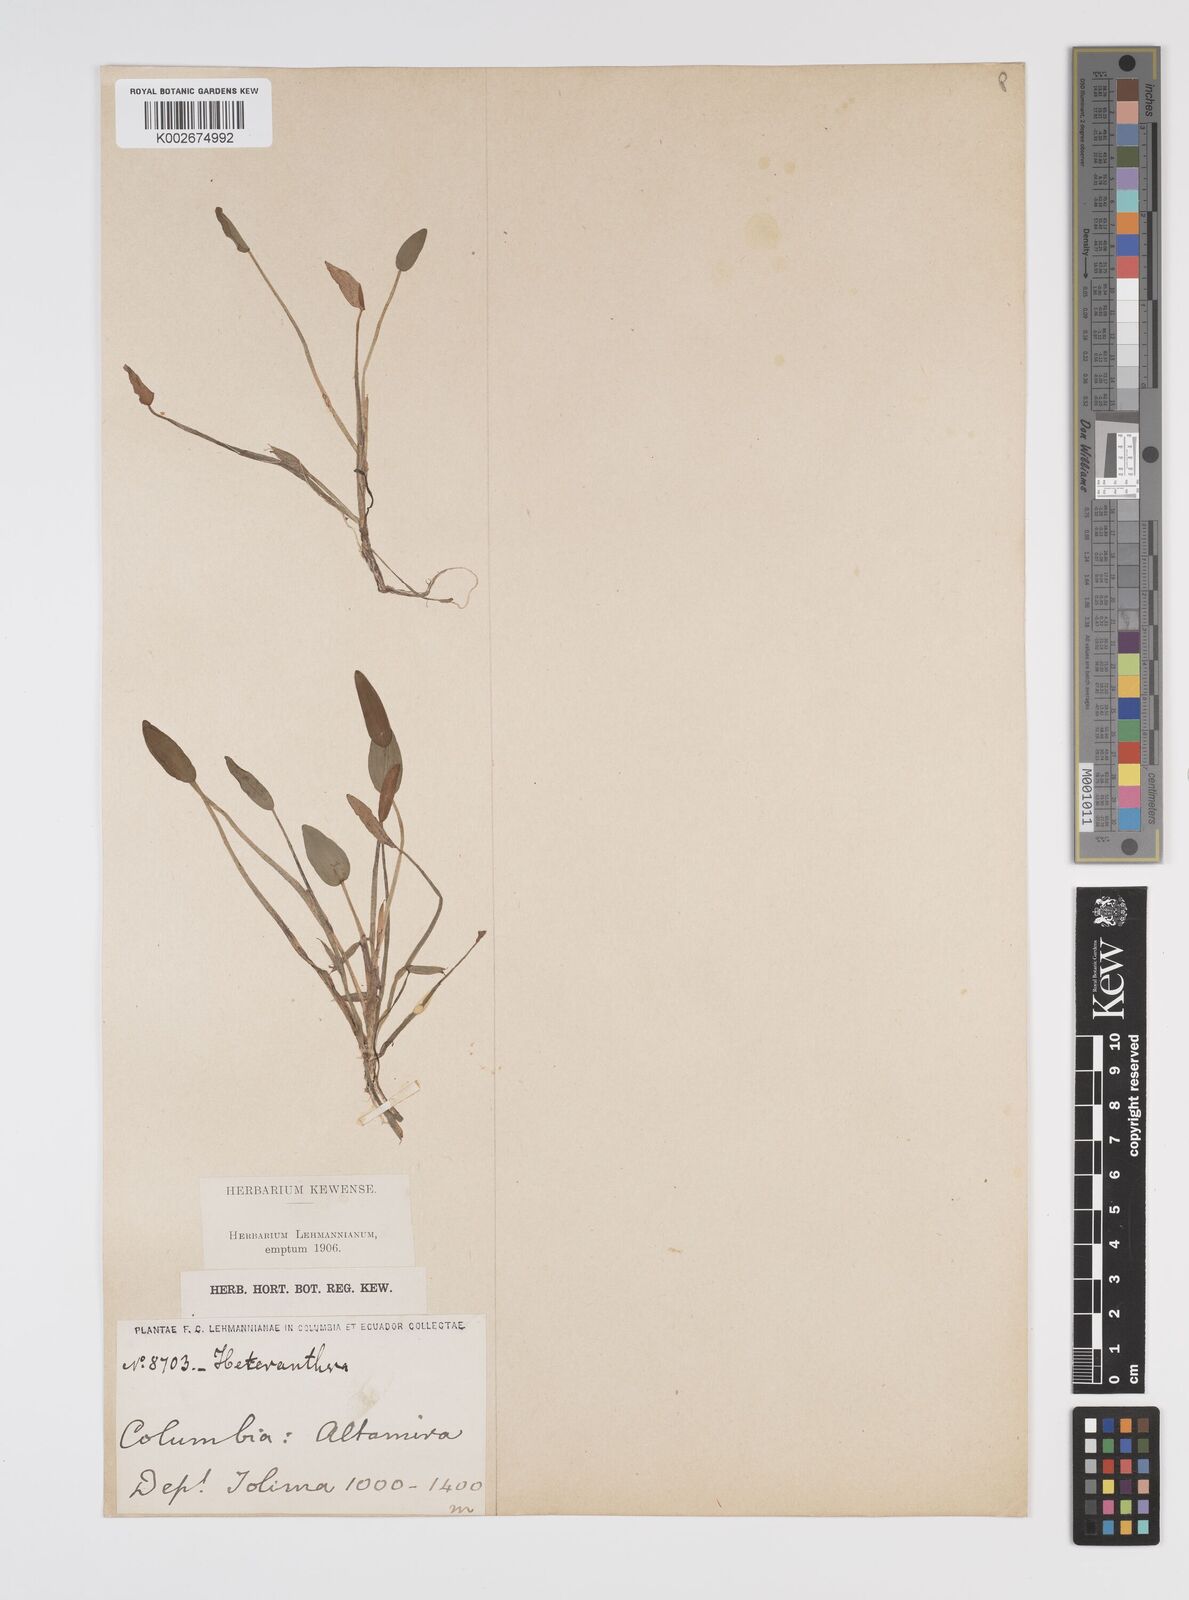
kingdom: Plantae
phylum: Tracheophyta
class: Liliopsida
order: Commelinales
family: Pontederiaceae
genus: Heteranthera
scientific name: Heteranthera limosa
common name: Blue mud-plantain
